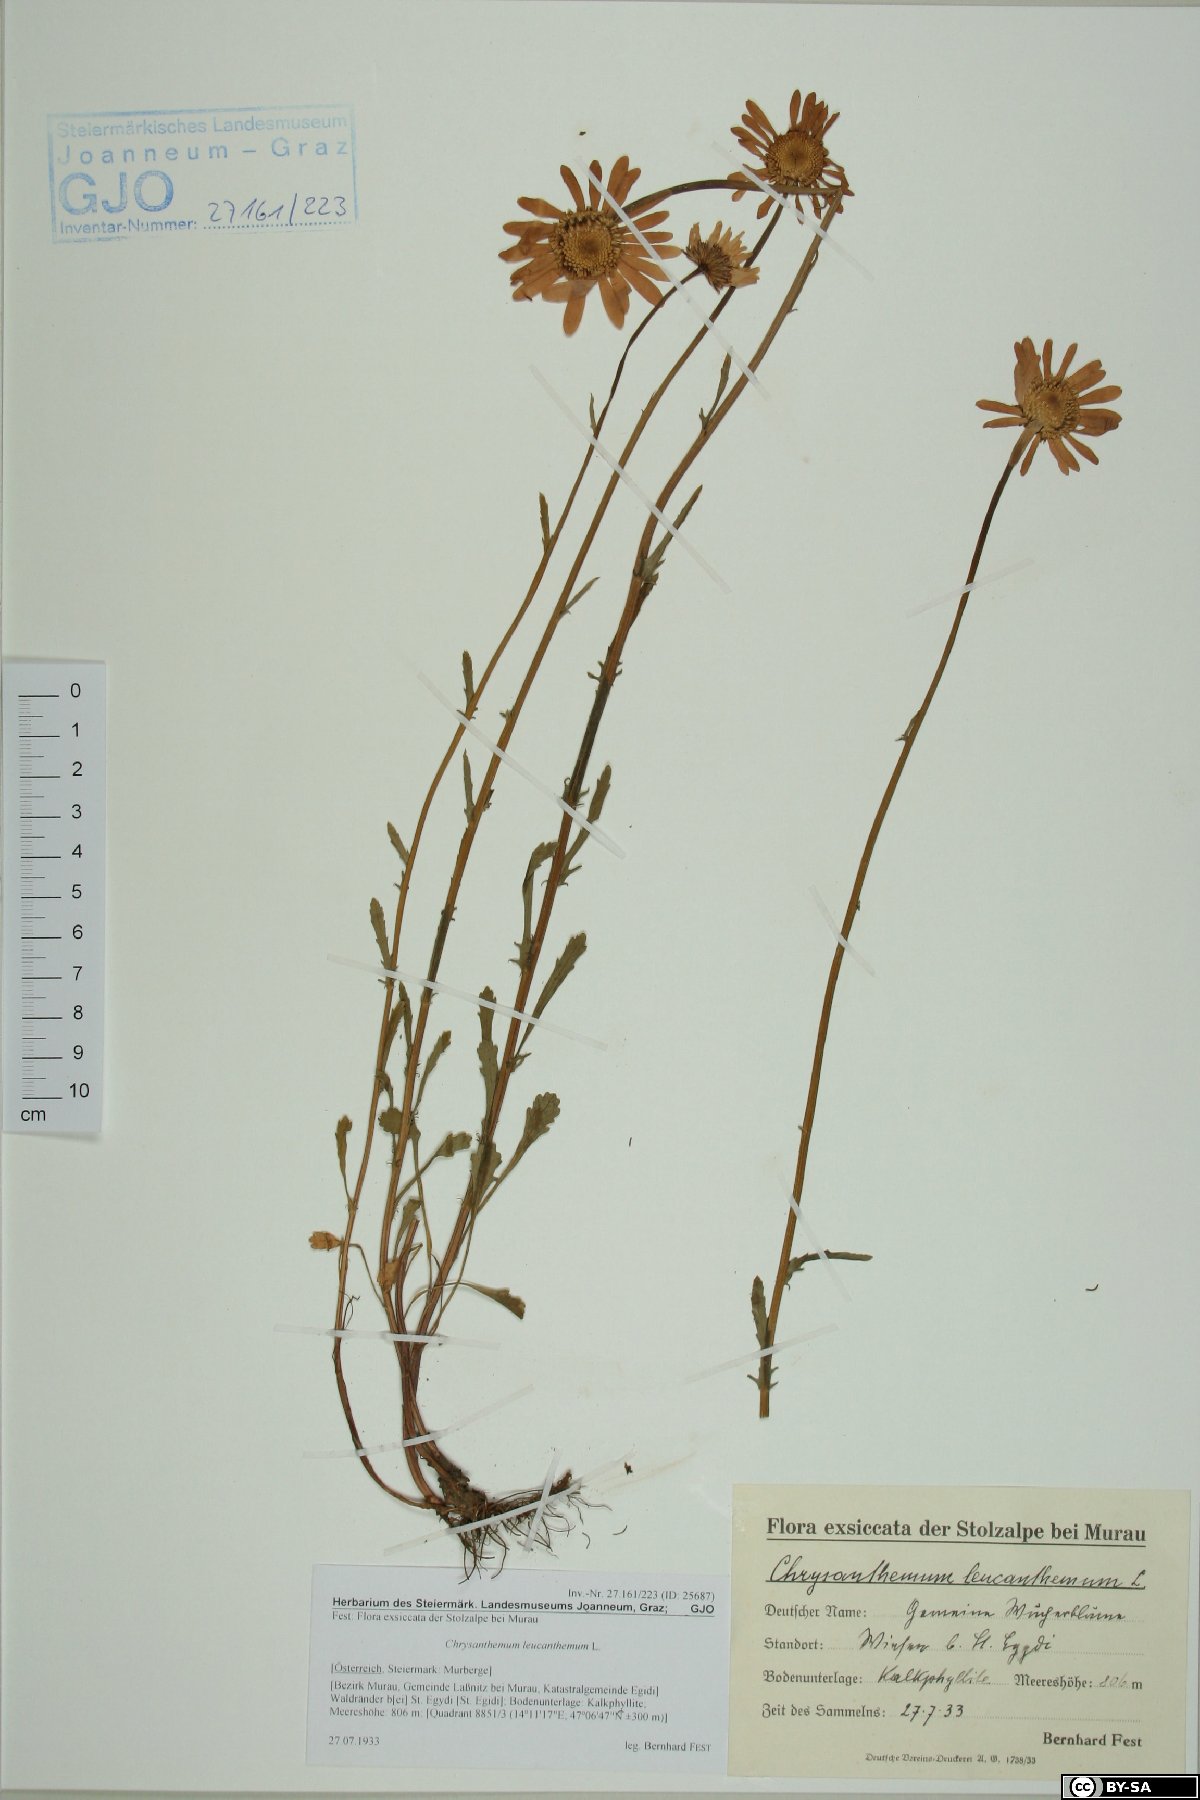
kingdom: Plantae
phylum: Tracheophyta
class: Magnoliopsida
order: Asterales
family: Asteraceae
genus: Leucanthemum
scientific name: Leucanthemum vulgare
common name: Oxeye daisy
